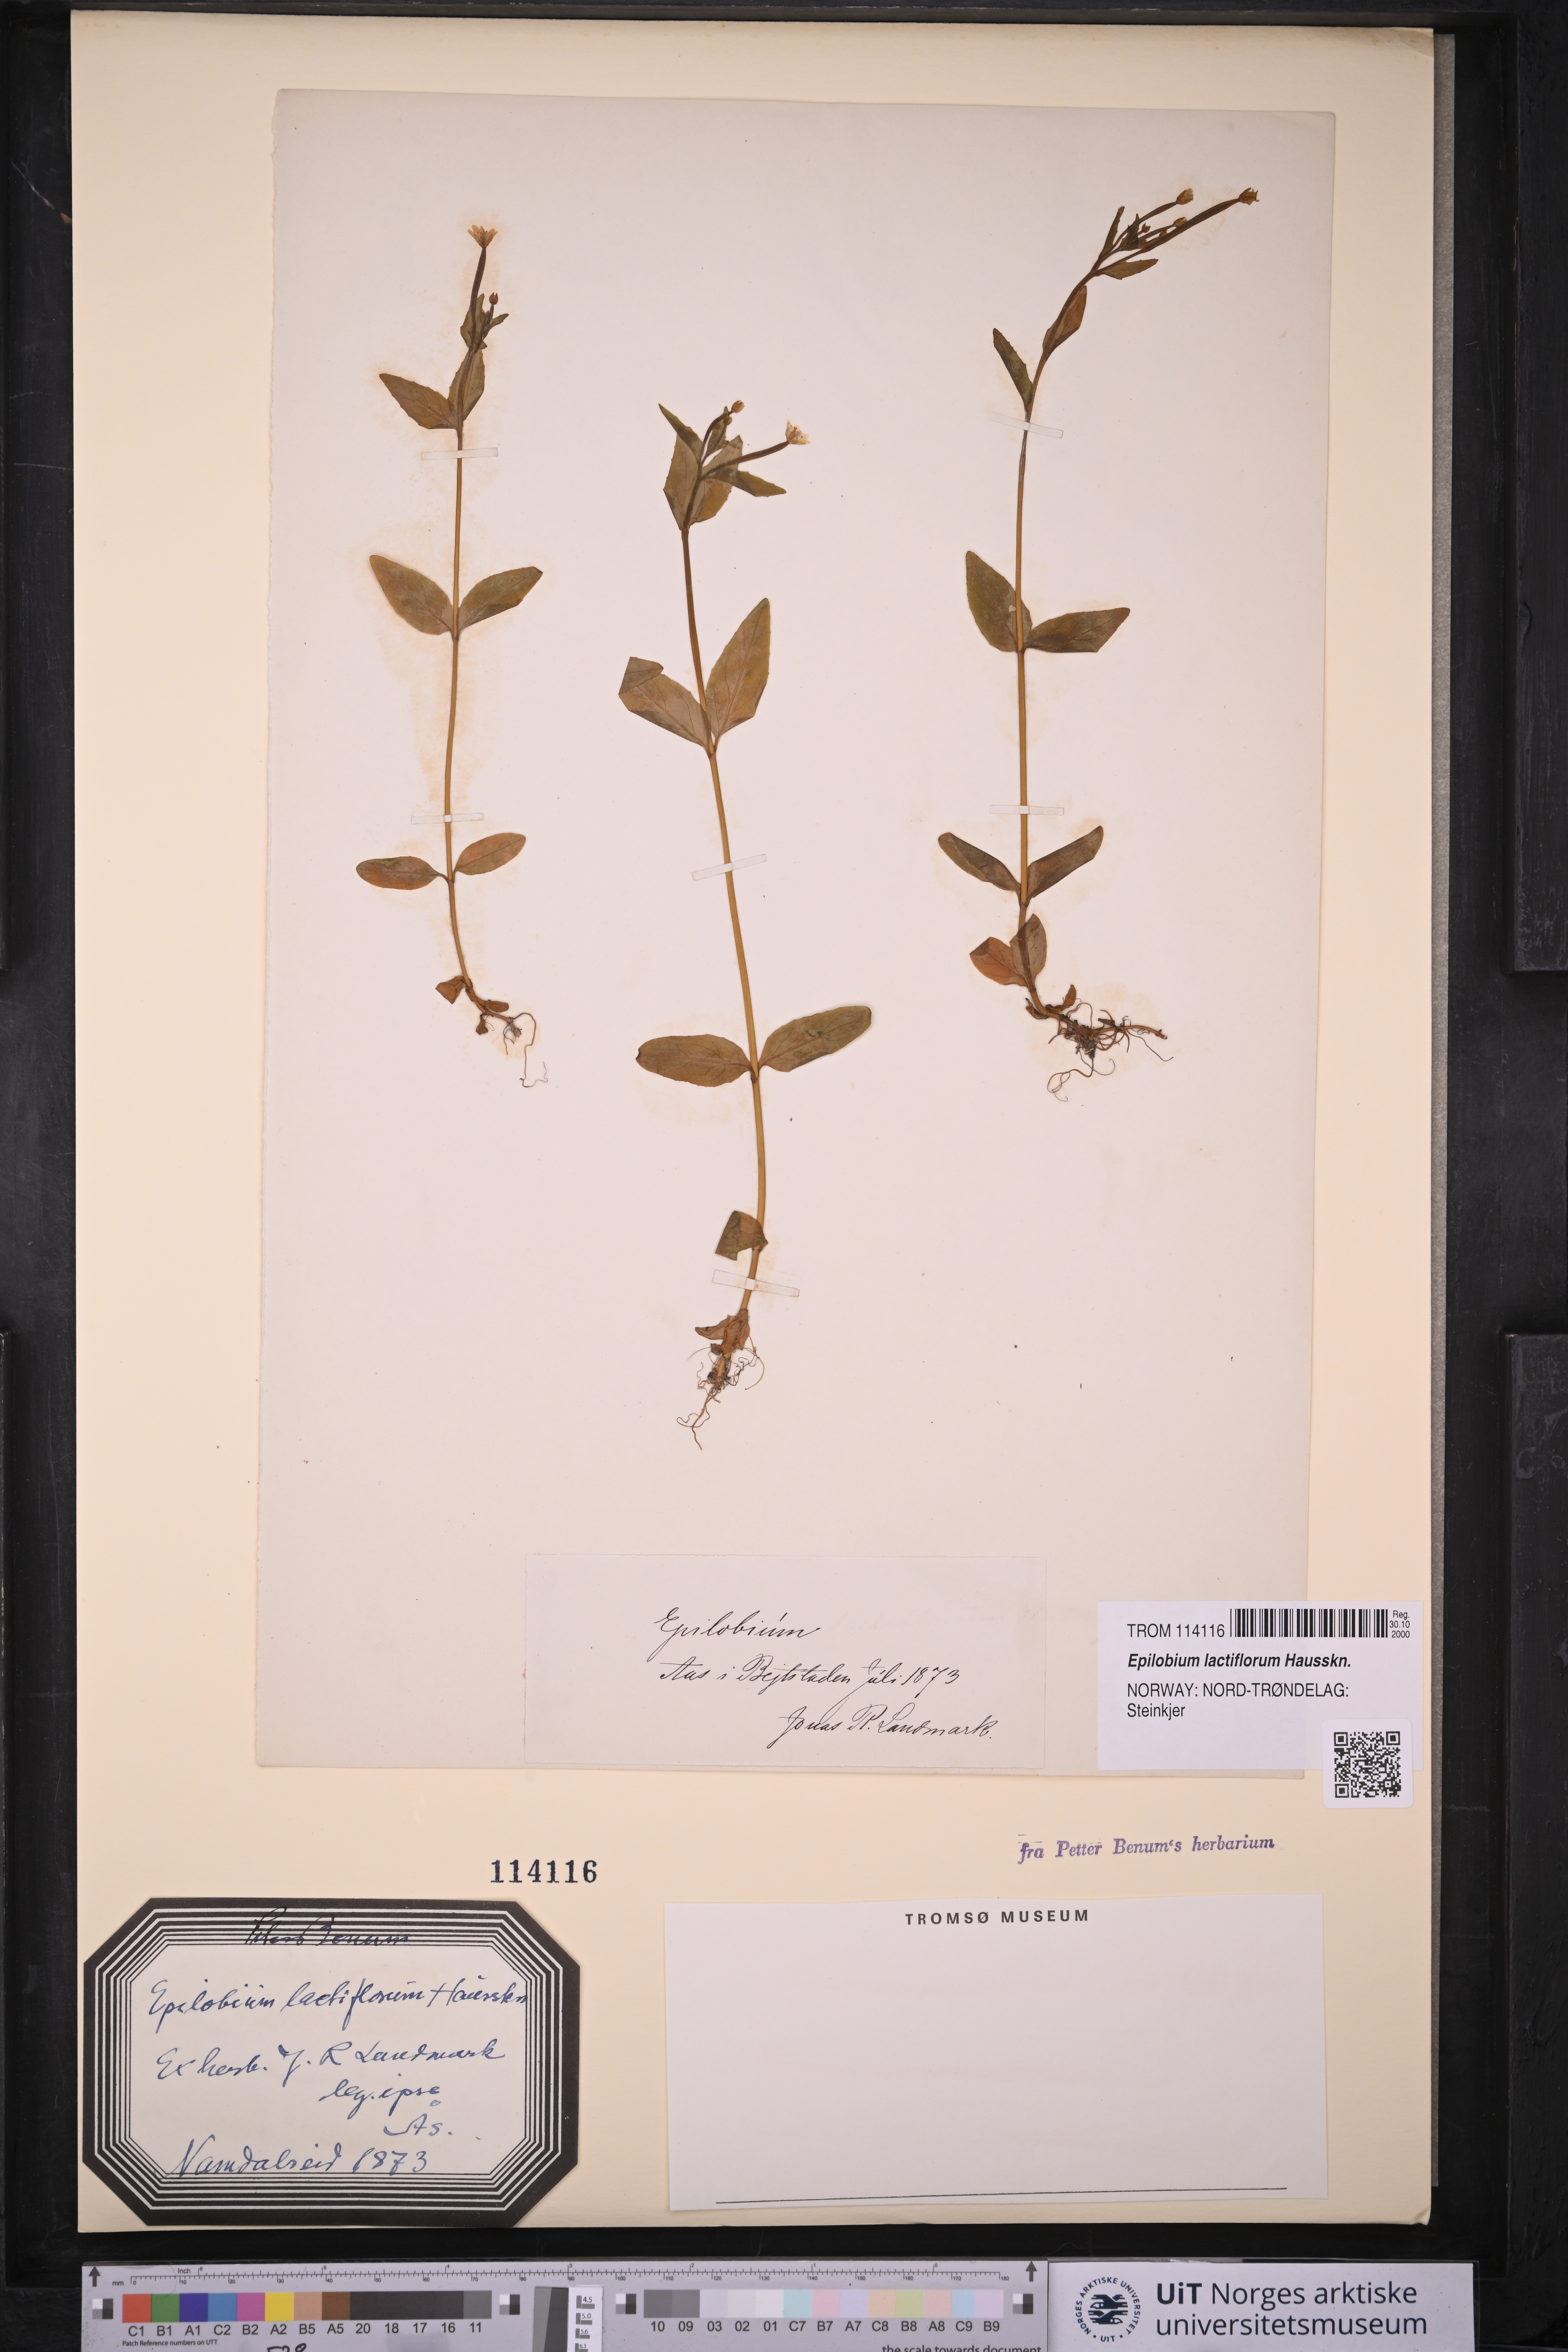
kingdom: Plantae
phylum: Tracheophyta
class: Magnoliopsida
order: Myrtales
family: Onagraceae
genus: Epilobium
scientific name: Epilobium lactiflorum
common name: Milkflower willowherb
